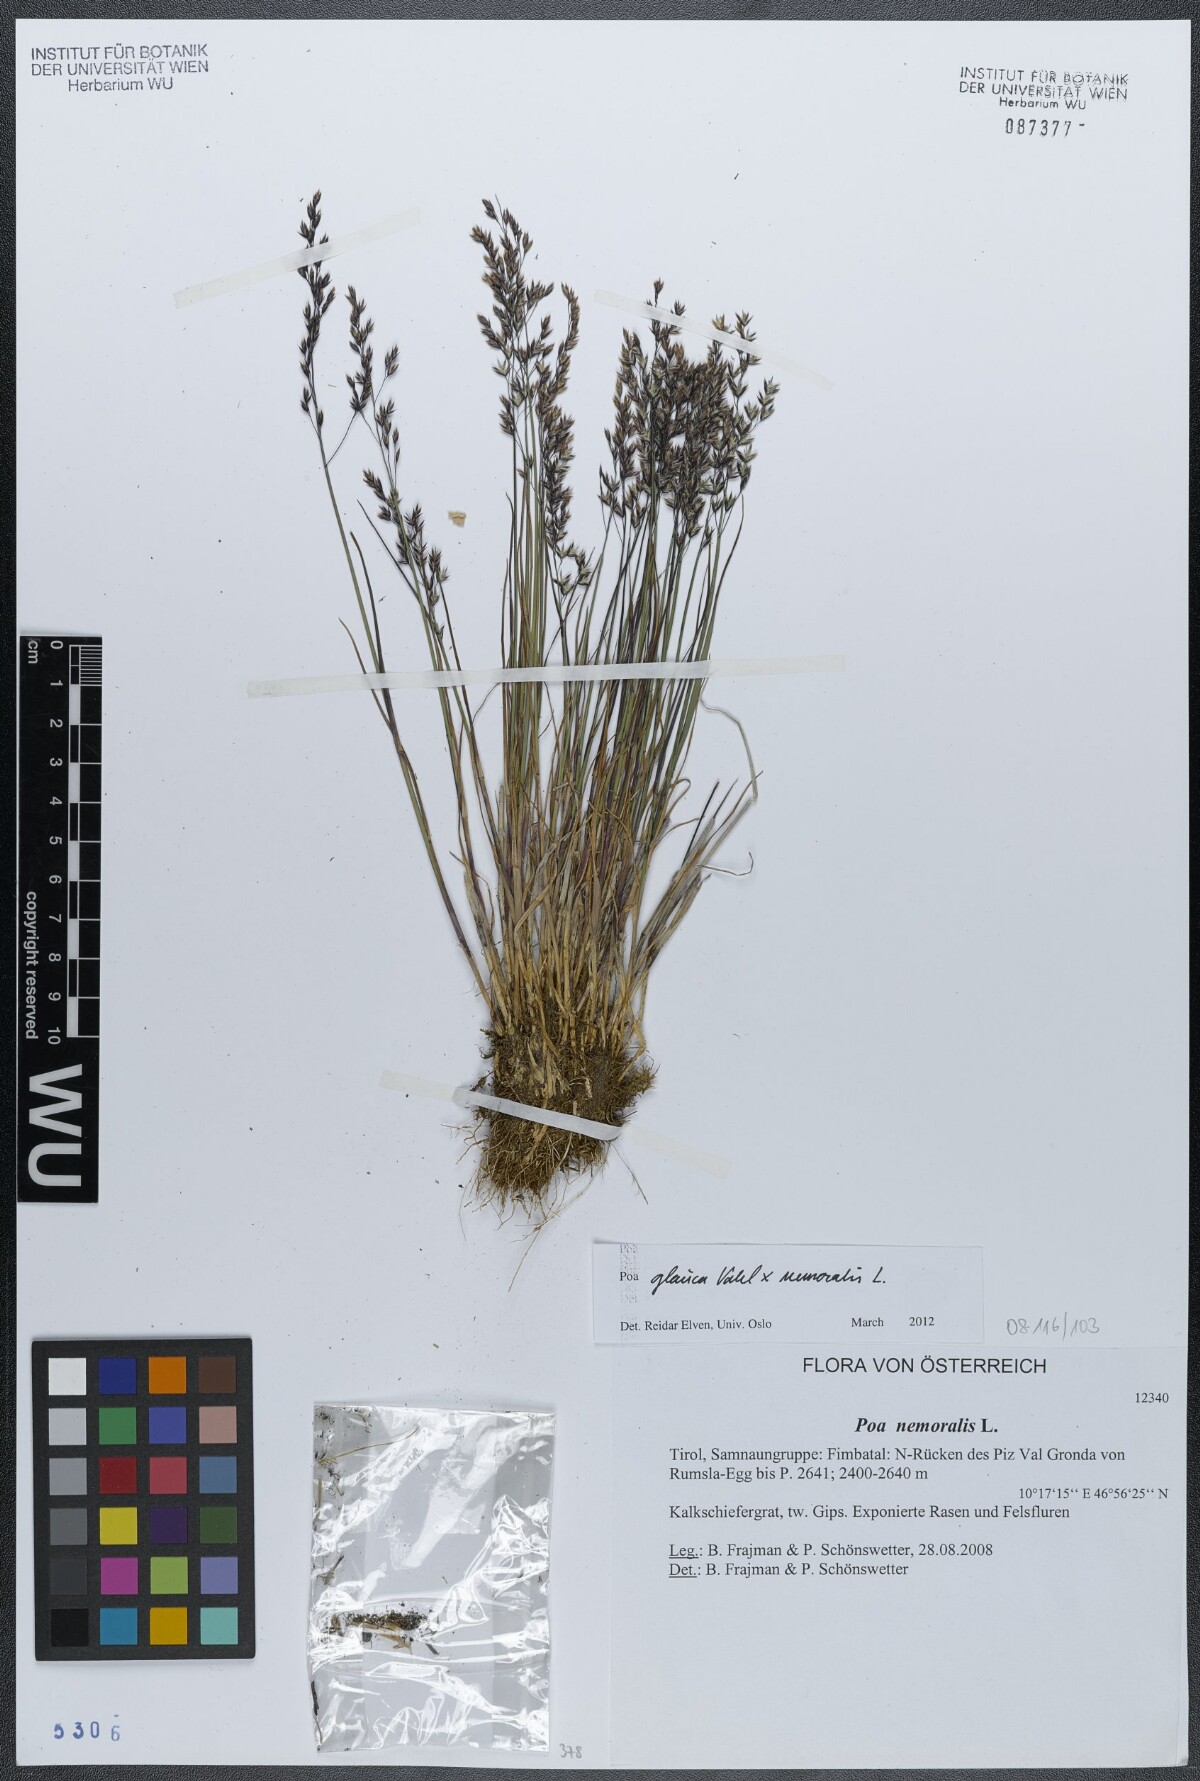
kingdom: Plantae
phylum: Tracheophyta
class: Liliopsida
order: Poales
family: Poaceae
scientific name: Poaceae
